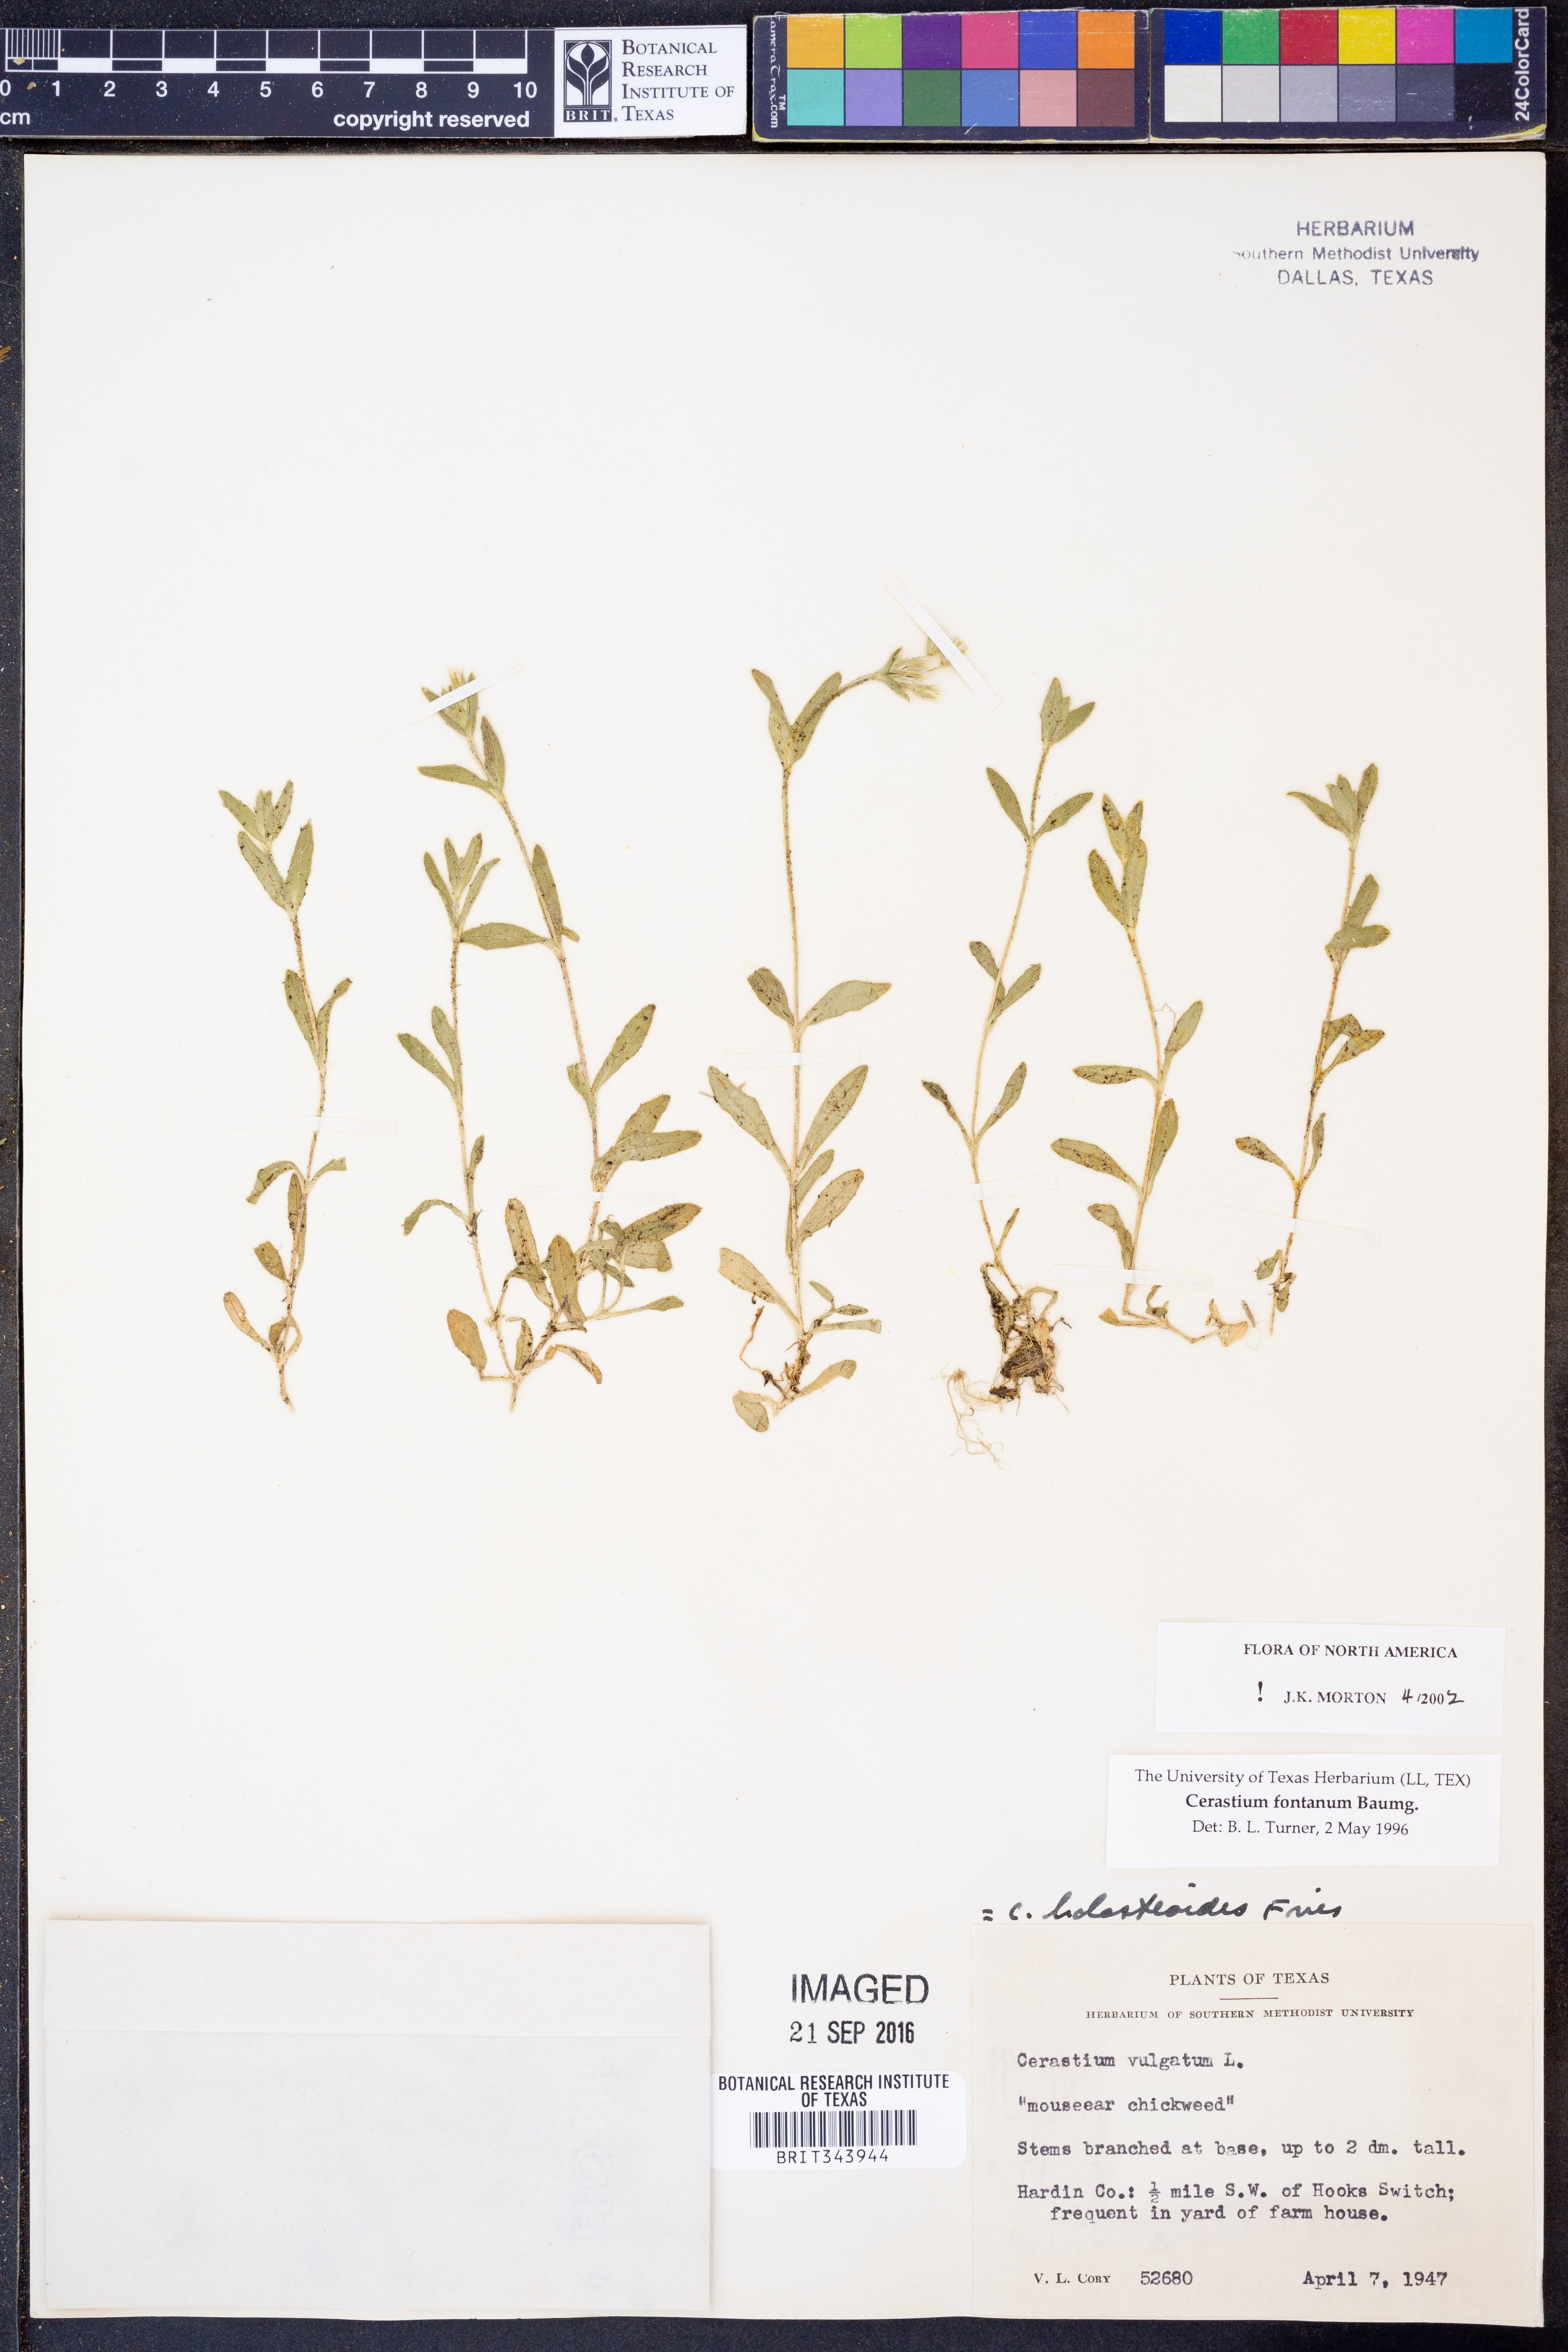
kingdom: Plantae
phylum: Tracheophyta
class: Magnoliopsida
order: Caryophyllales
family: Caryophyllaceae
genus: Cerastium
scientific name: Cerastium fontanum
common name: Common mouse-ear
